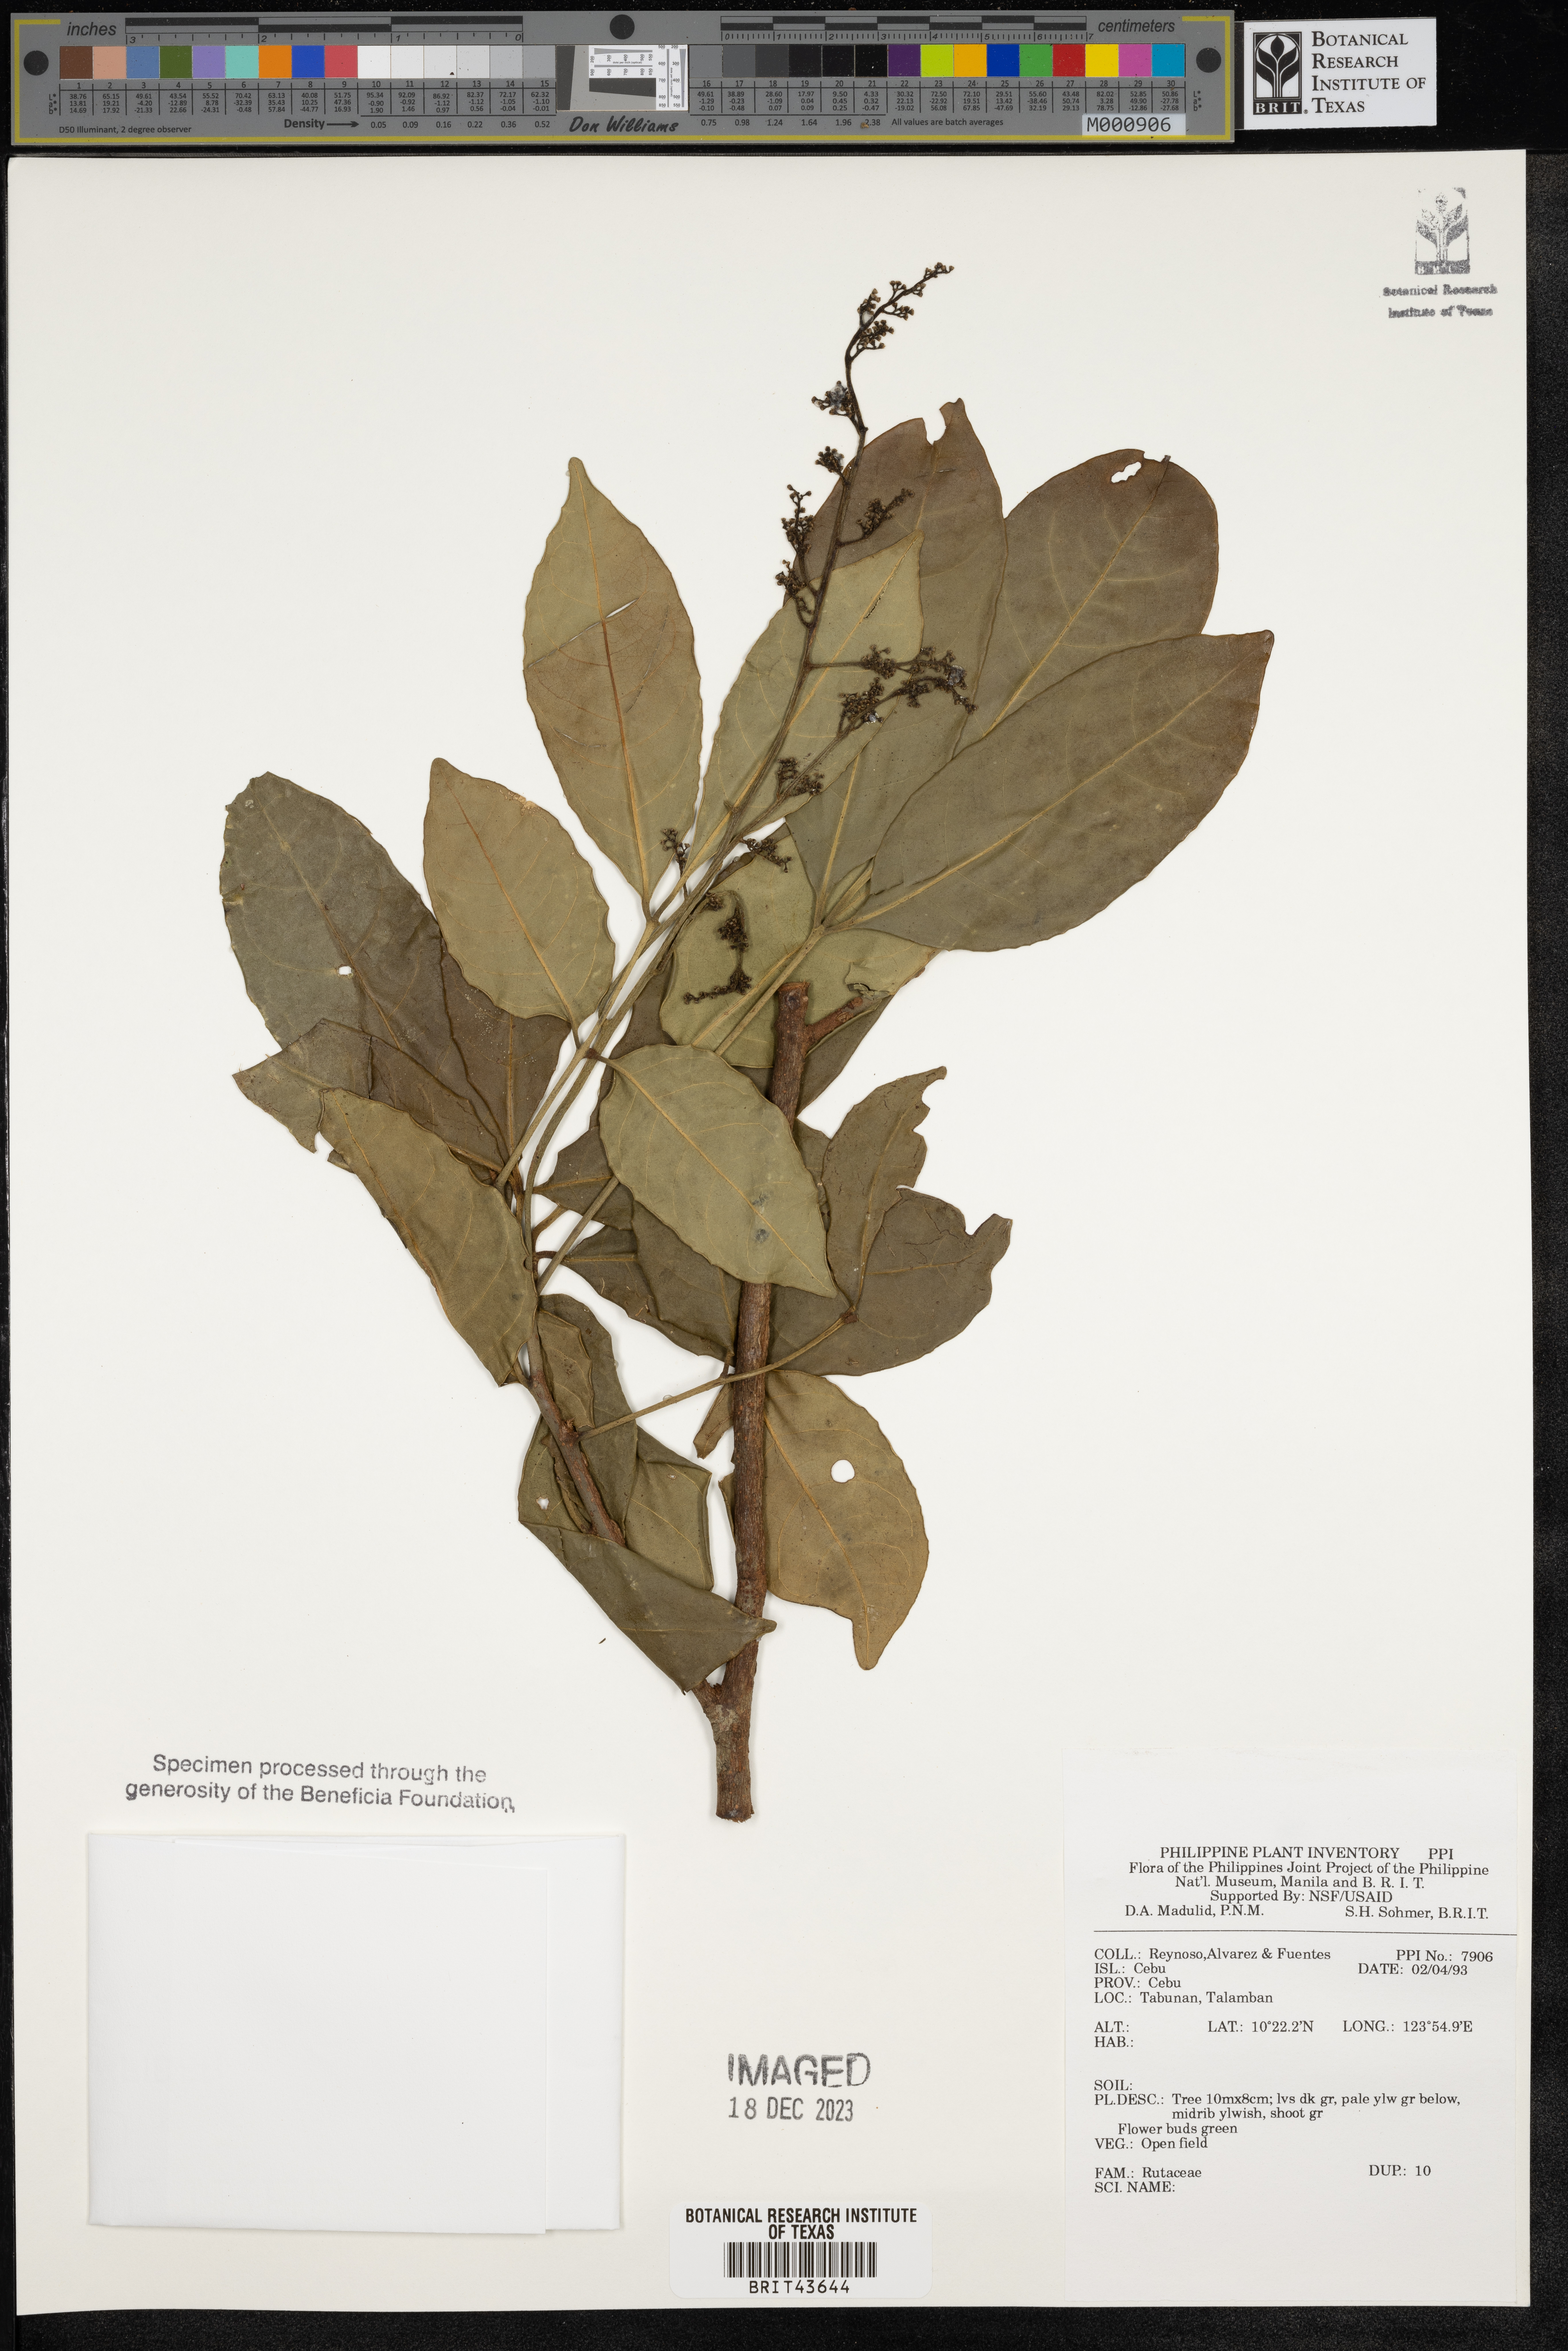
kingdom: Plantae
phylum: Tracheophyta
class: Magnoliopsida
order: Sapindales
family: Rutaceae
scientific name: Rutaceae
